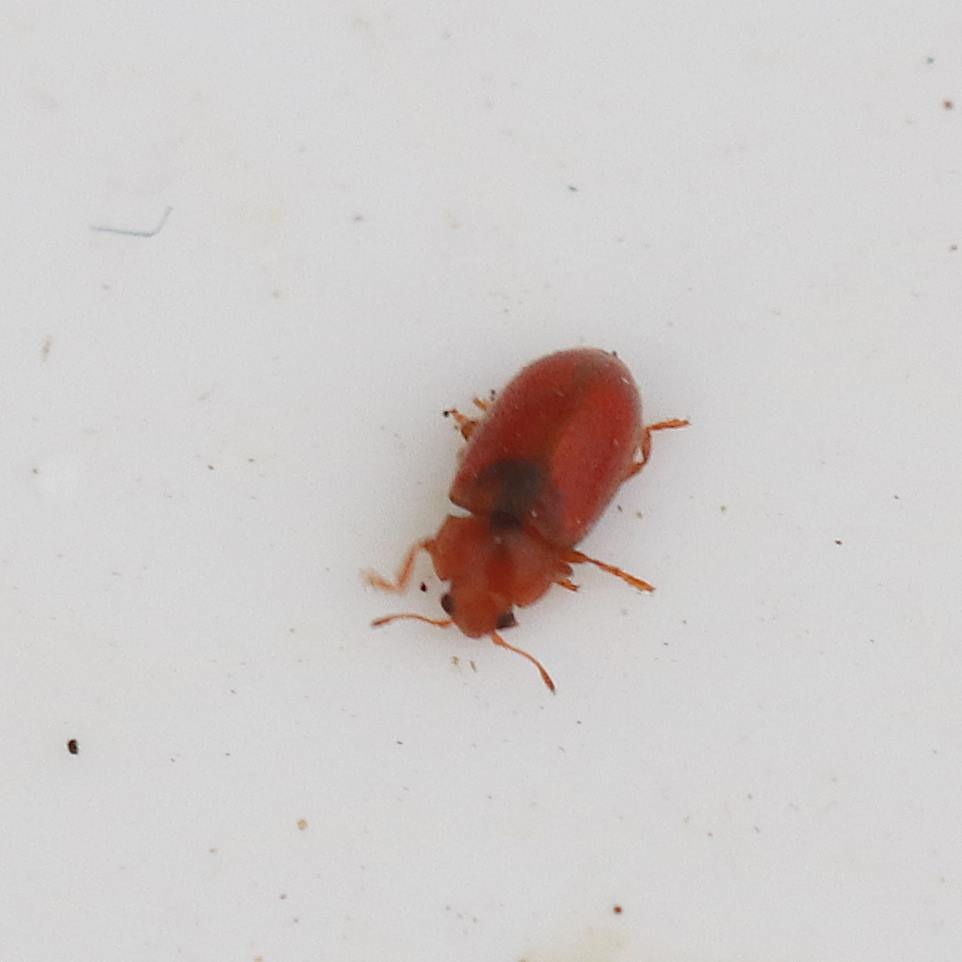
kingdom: Animalia
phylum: Arthropoda
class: Insecta
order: Coleoptera
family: Coccinellidae
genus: Coccidula
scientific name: Coccidula rufa
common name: Slank mariehøne
